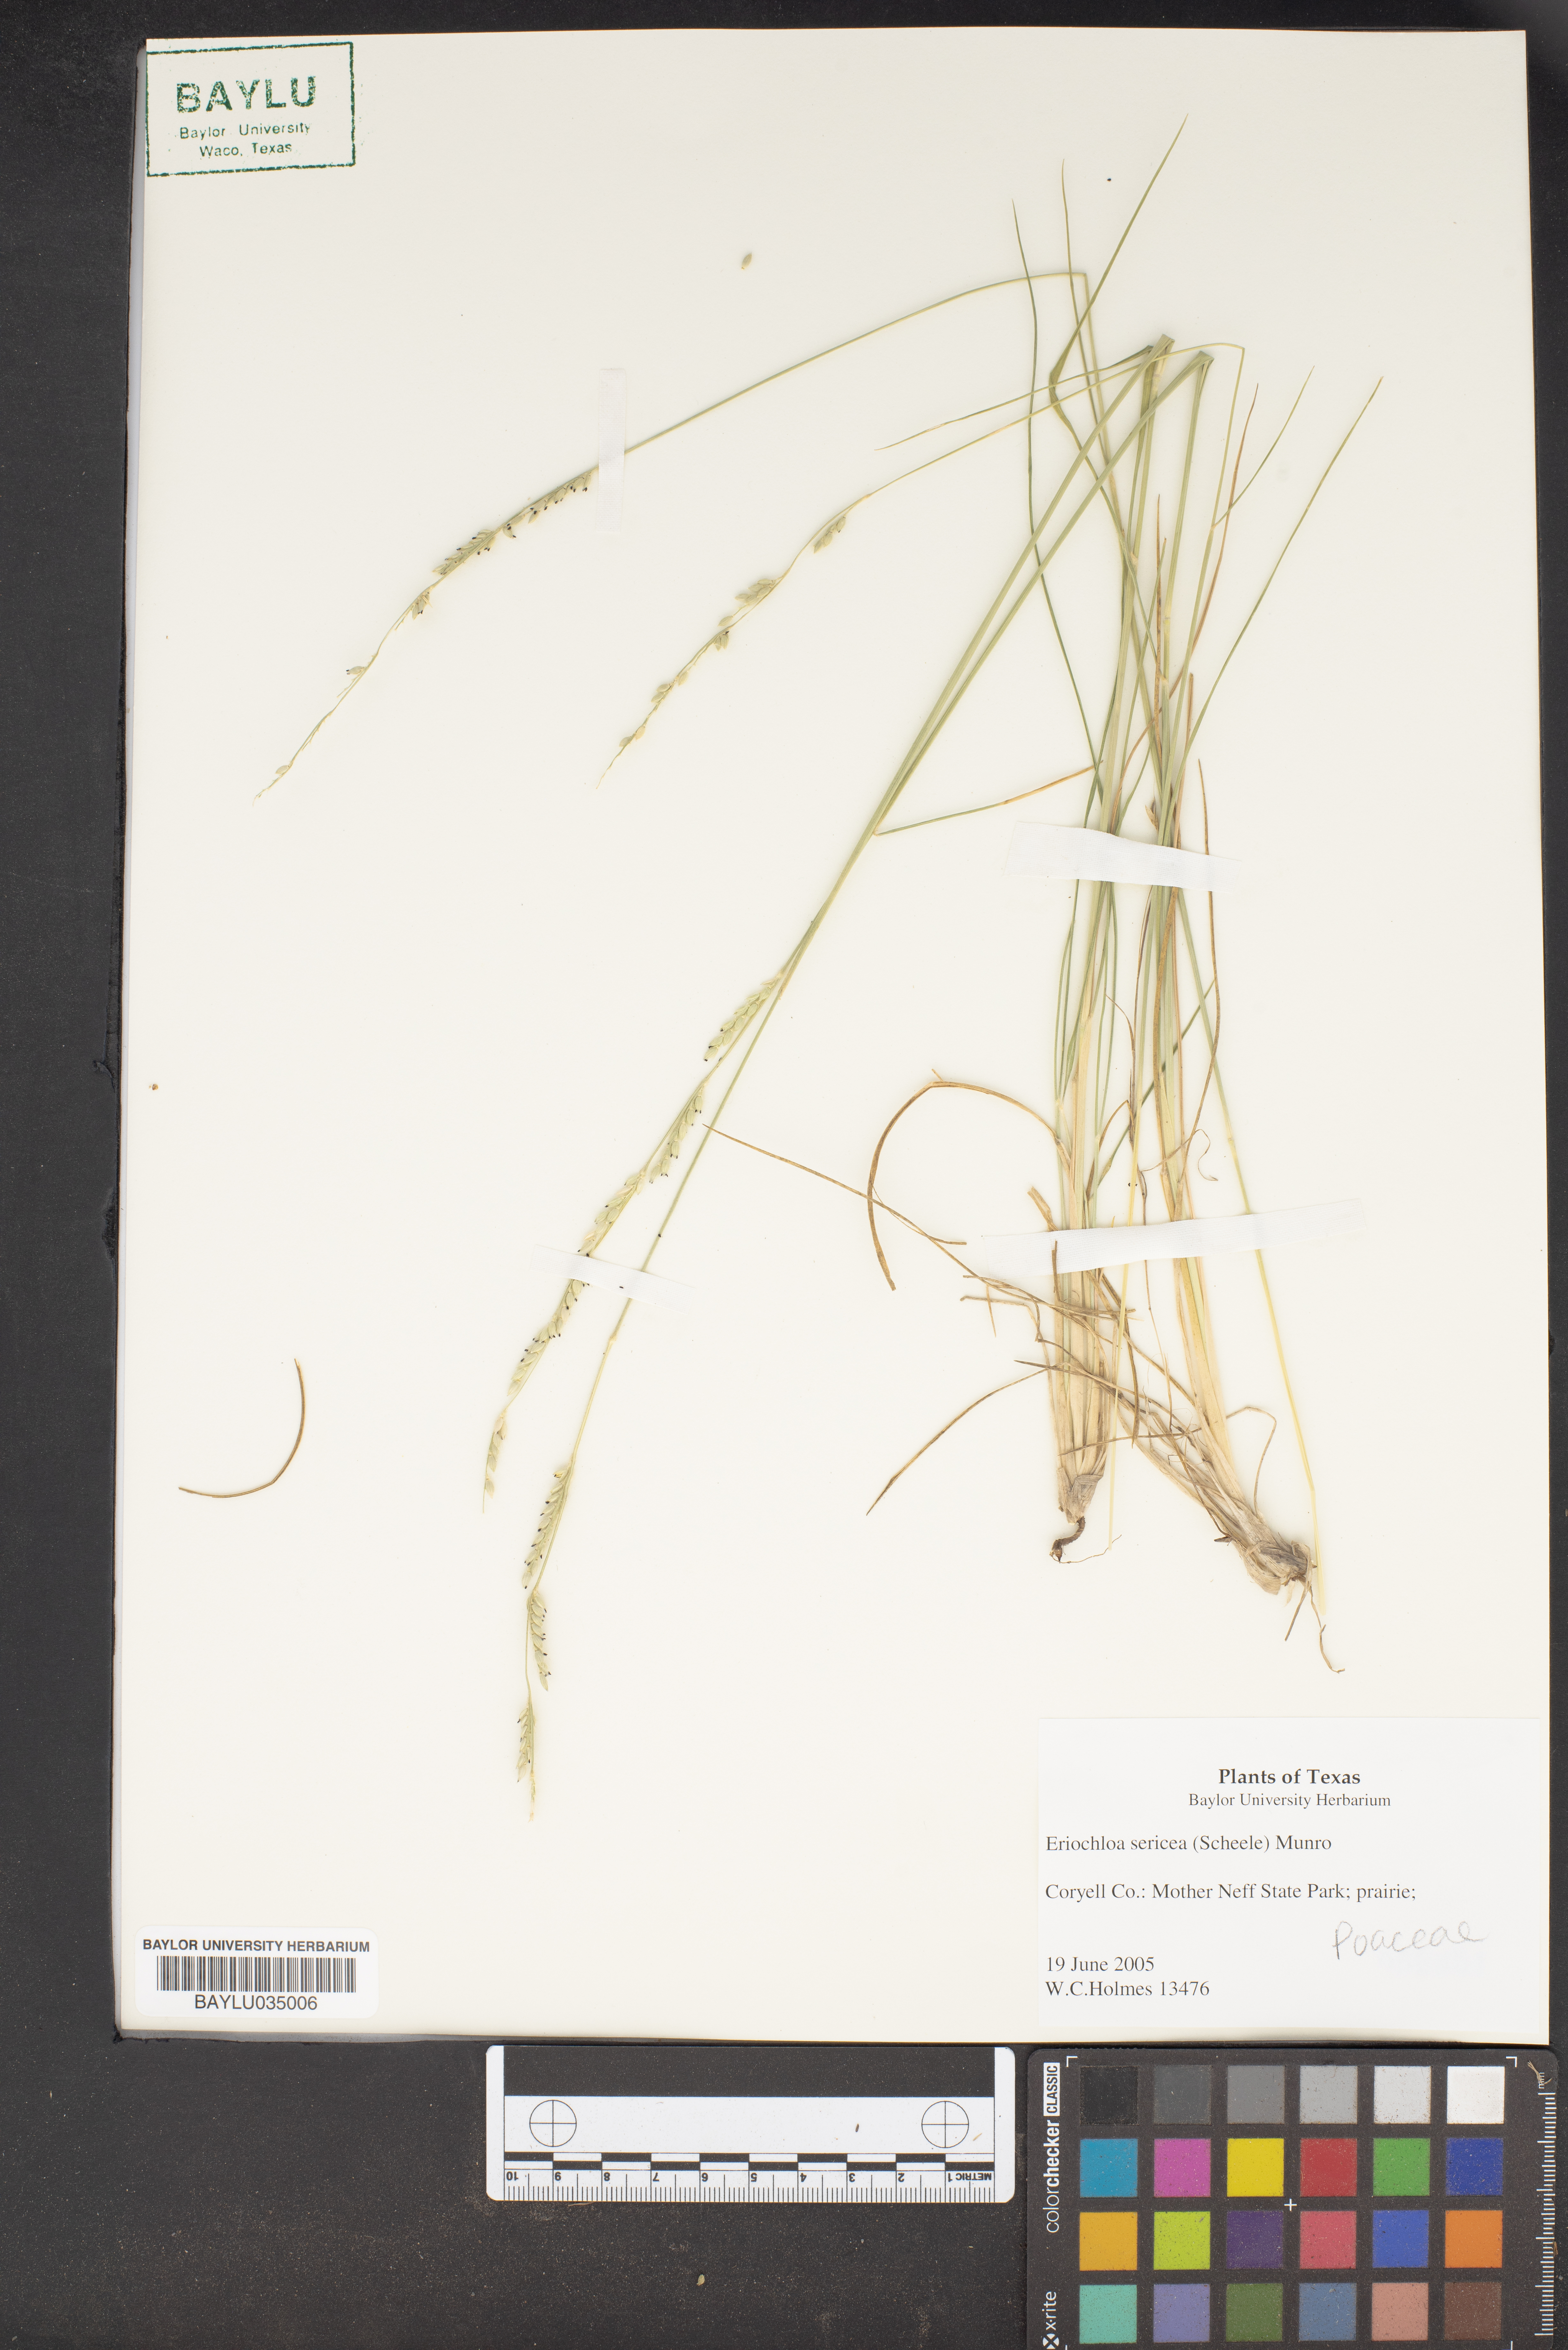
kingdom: Plantae
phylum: Tracheophyta
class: Liliopsida
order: Poales
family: Poaceae
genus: Eriochloa
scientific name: Eriochloa sericea
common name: Texas cup grass
